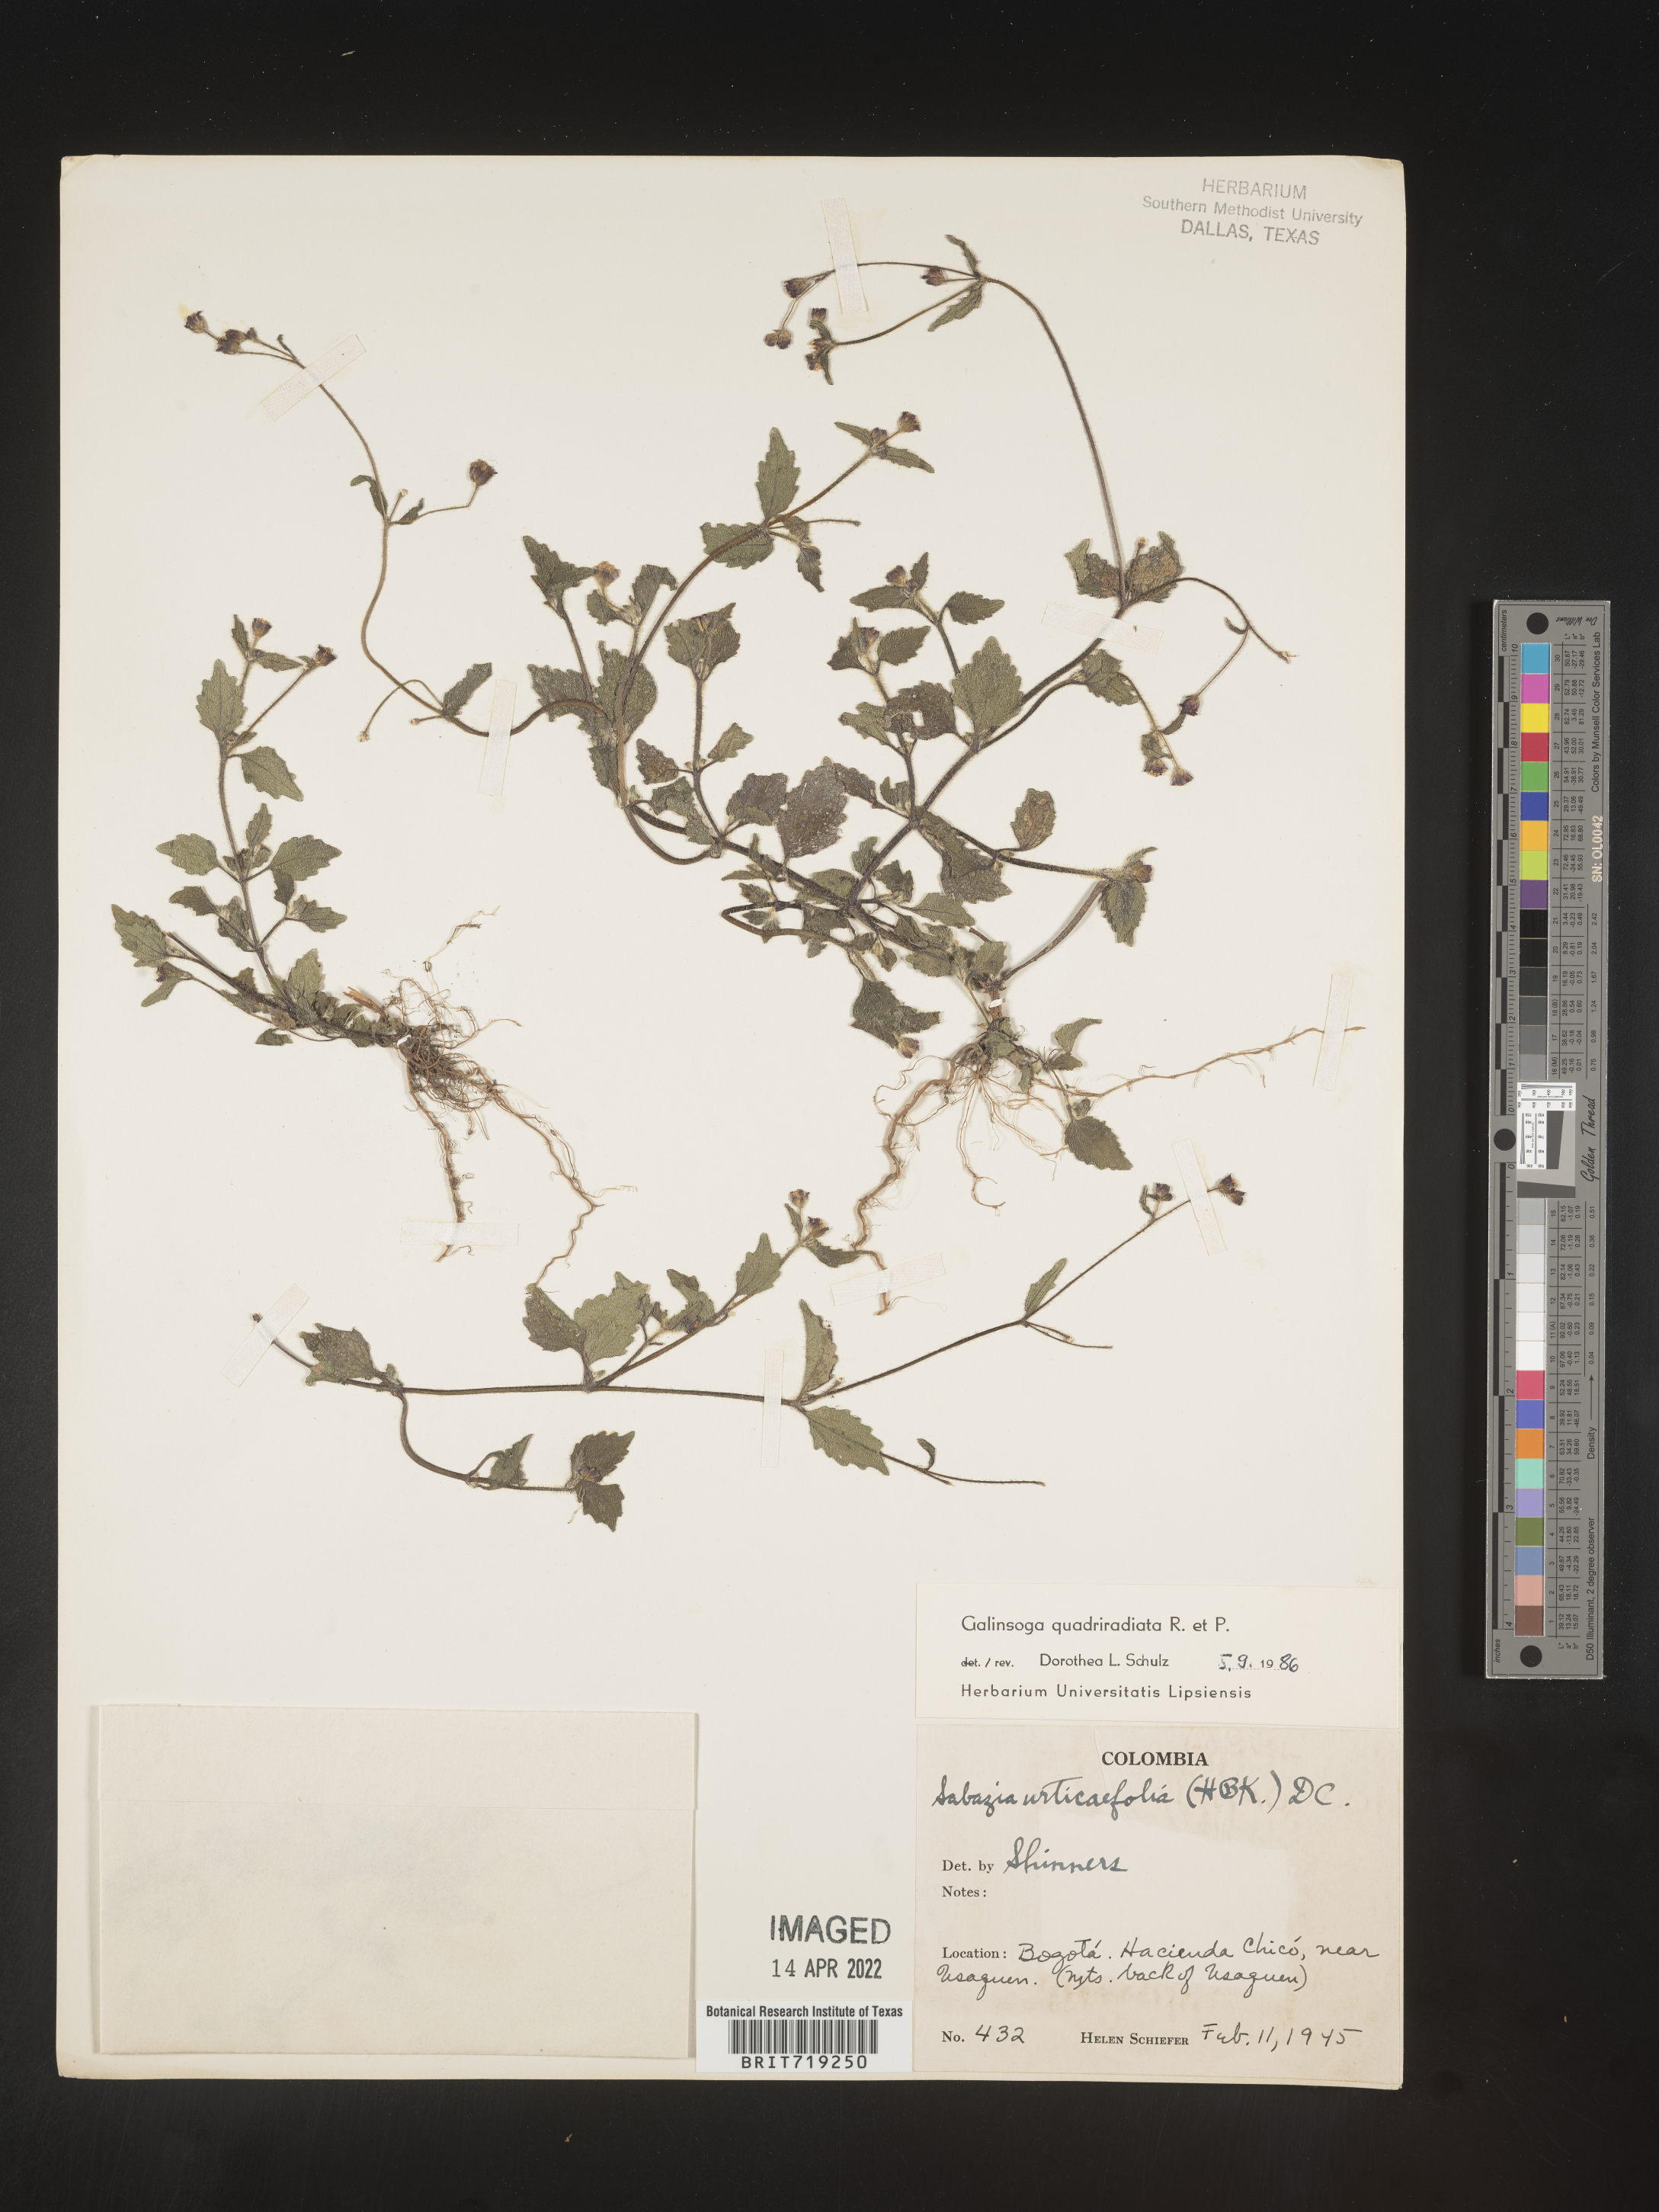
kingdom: Plantae
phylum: Tracheophyta
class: Magnoliopsida
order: Asterales
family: Asteraceae
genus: Galinsoga
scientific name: Galinsoga
